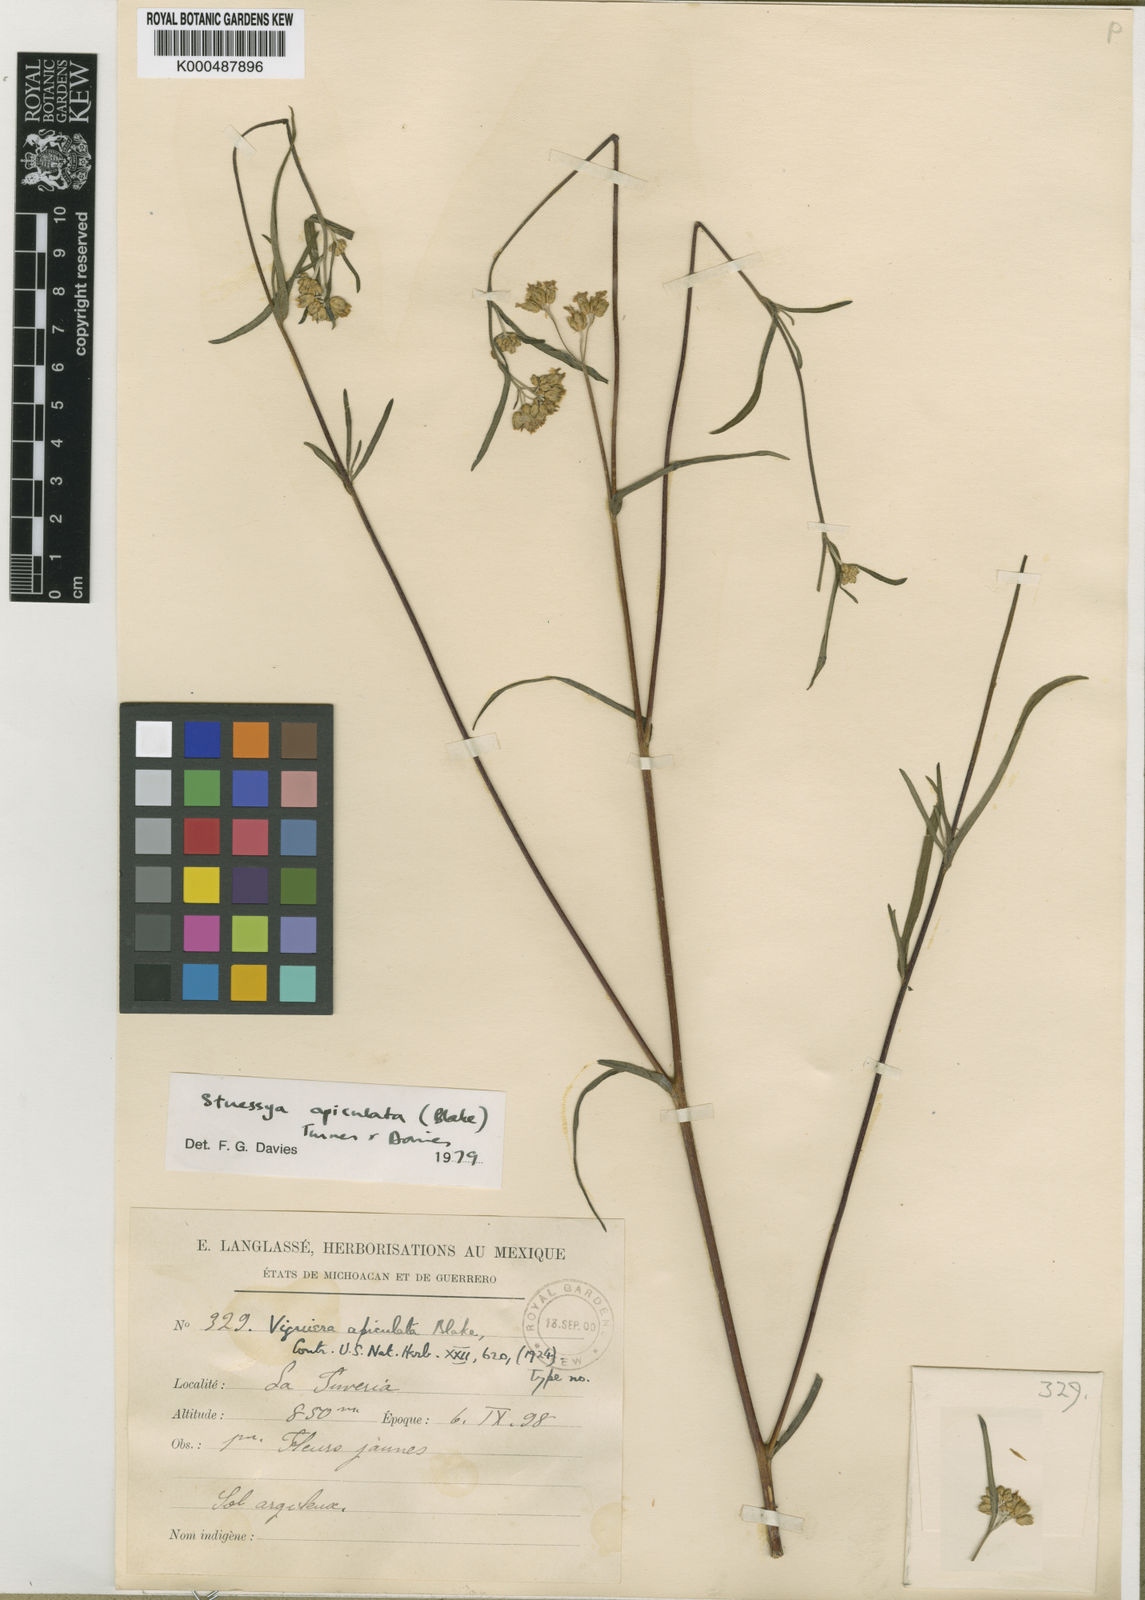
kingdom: Plantae
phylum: Tracheophyta
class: Magnoliopsida
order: Asterales
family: Asteraceae
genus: Aldama
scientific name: Aldama apiculata
